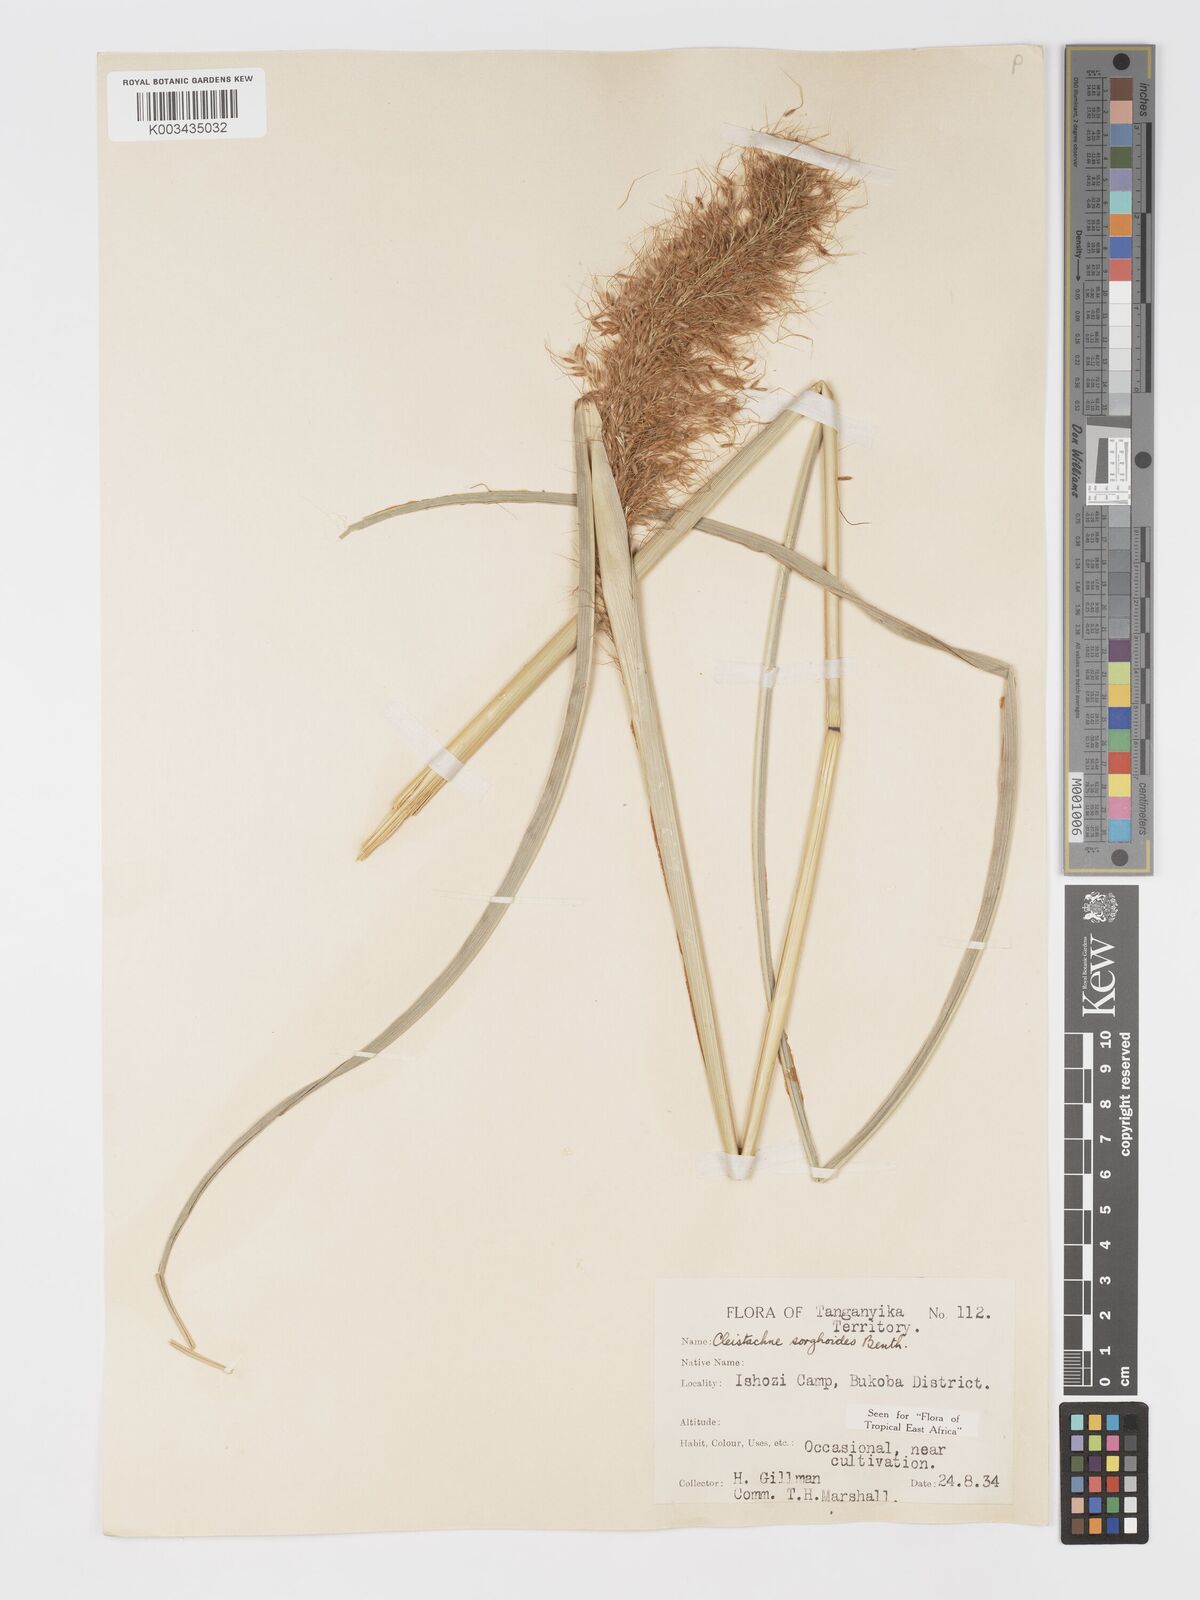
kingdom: Plantae
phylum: Tracheophyta
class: Liliopsida
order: Poales
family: Poaceae
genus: Cleistachne
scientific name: Cleistachne sorghoides
